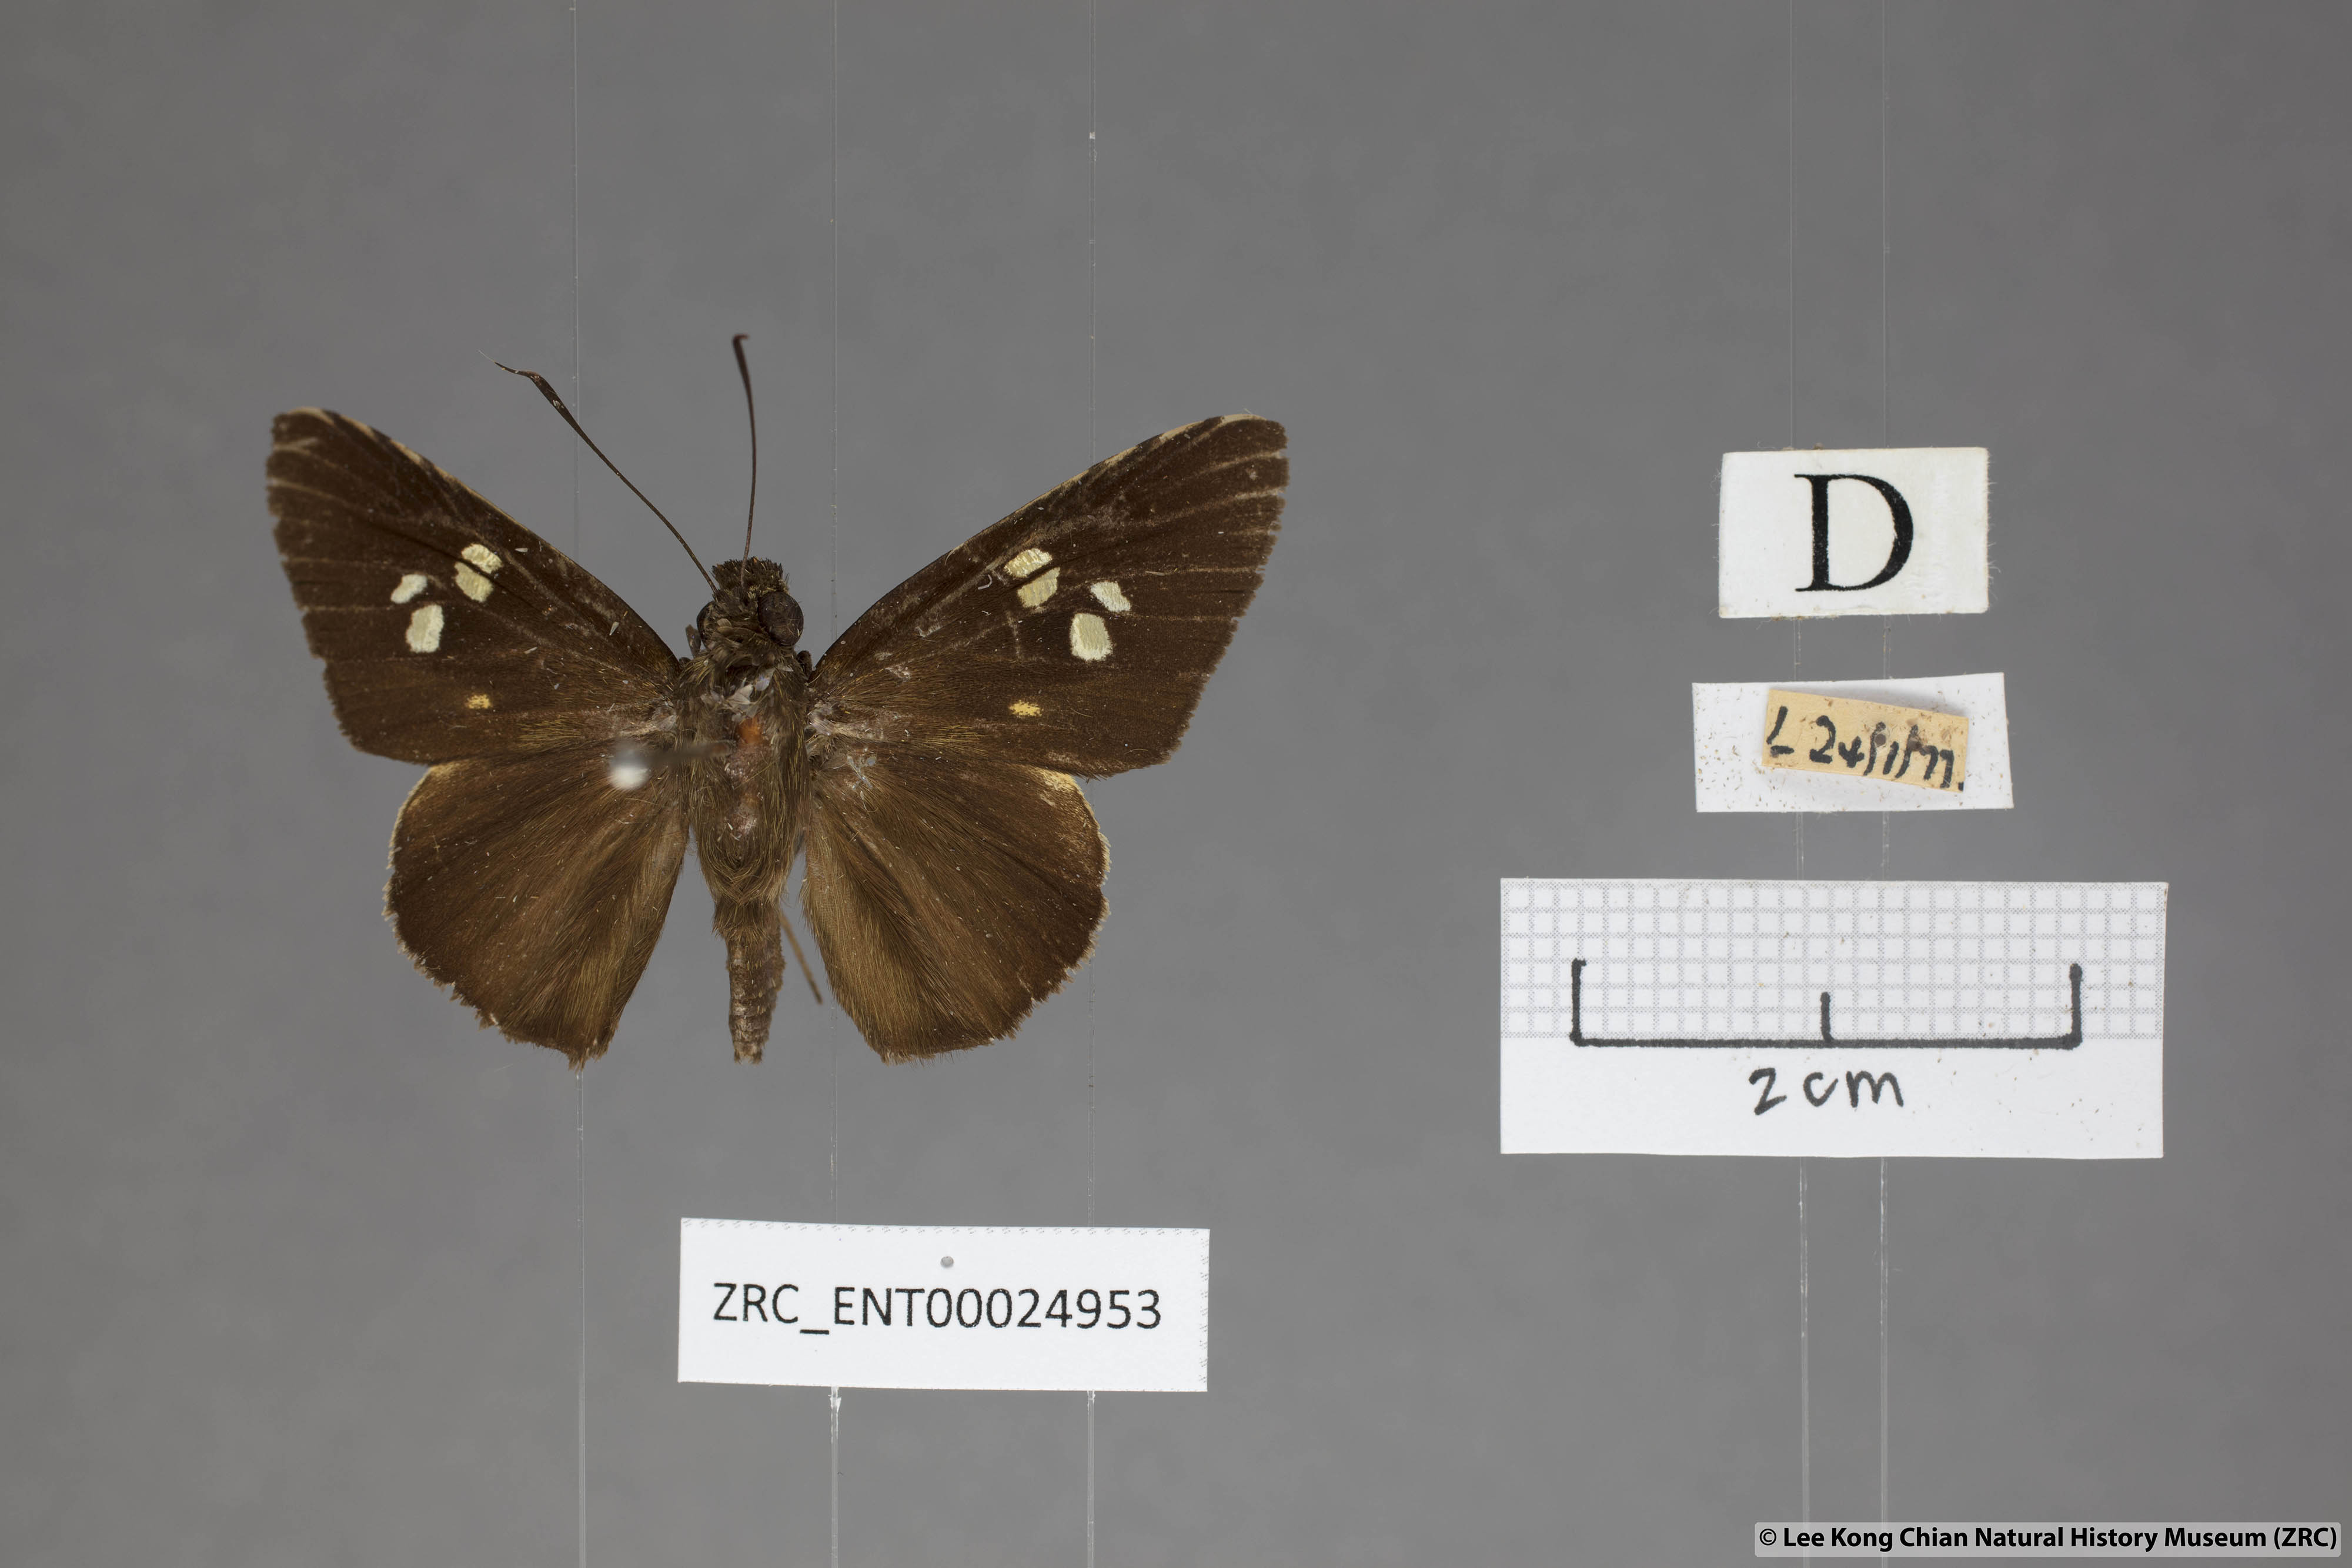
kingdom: Animalia
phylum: Arthropoda
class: Insecta
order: Lepidoptera
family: Hesperiidae
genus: Lotongus
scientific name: Lotongus calathus
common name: White-tipped palmer
